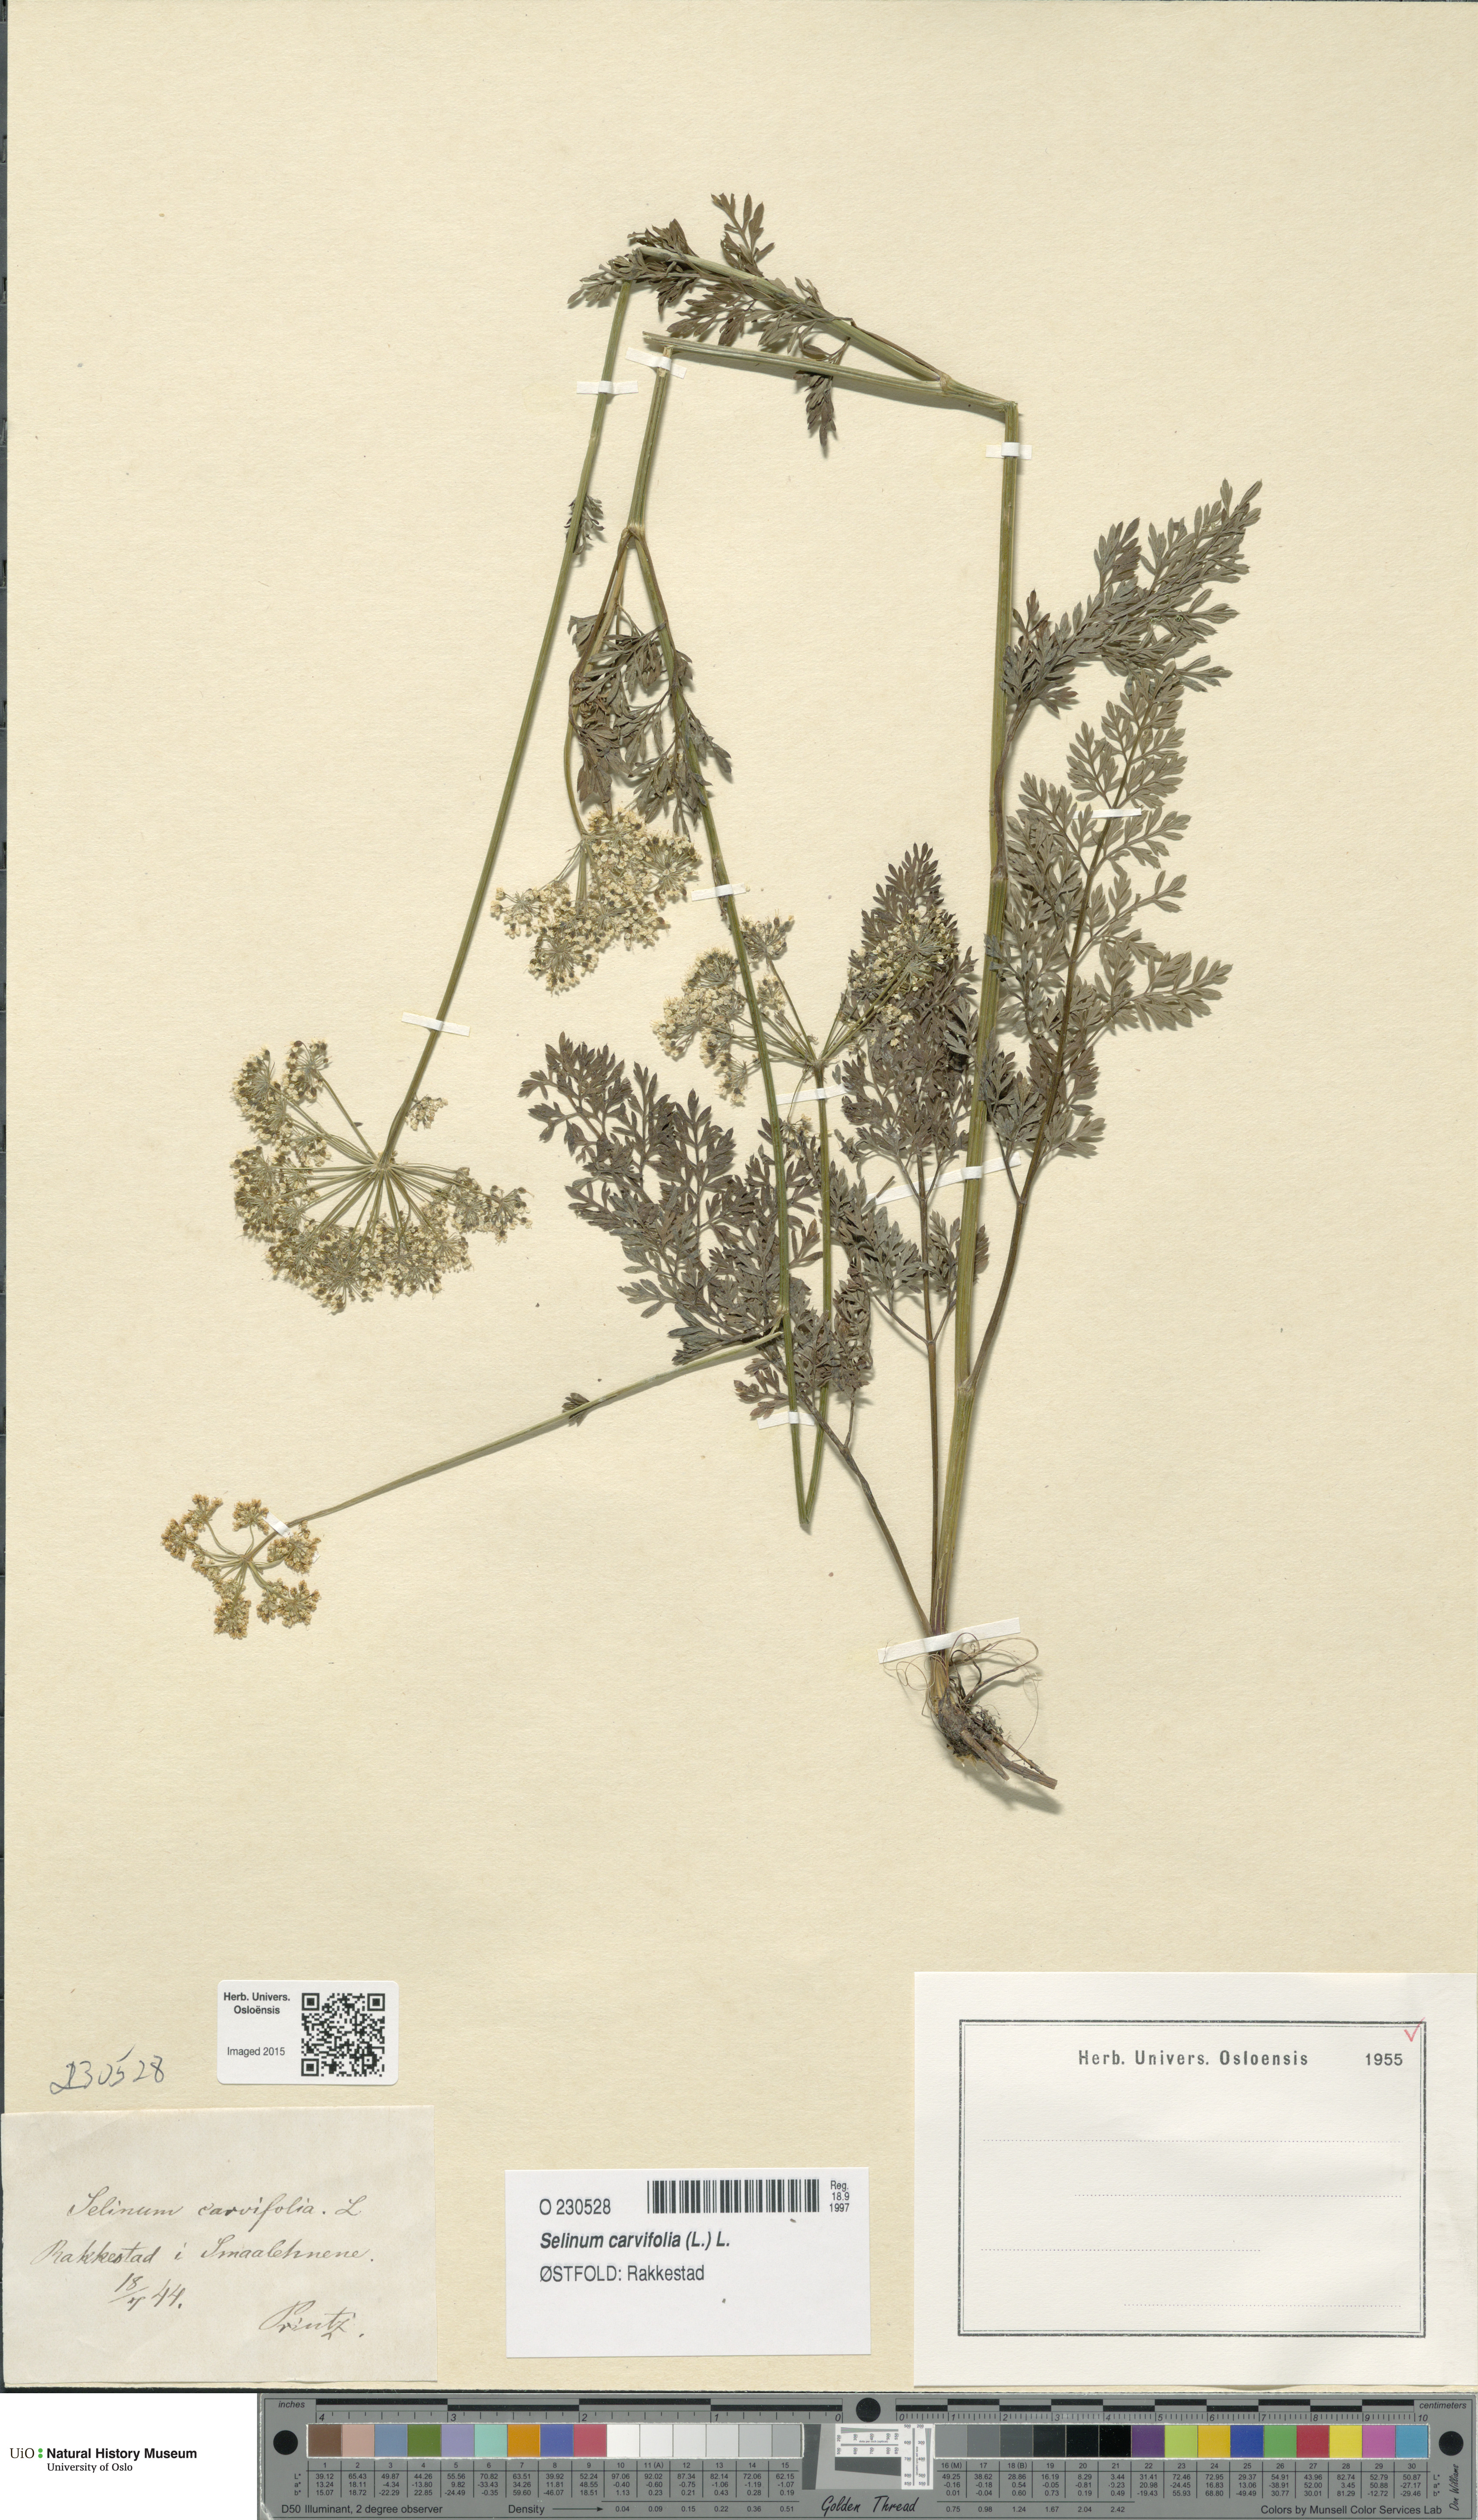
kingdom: Plantae
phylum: Tracheophyta
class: Magnoliopsida
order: Apiales
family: Apiaceae
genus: Selinum
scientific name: Selinum carvifolia
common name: Cambridge milk-parsley
